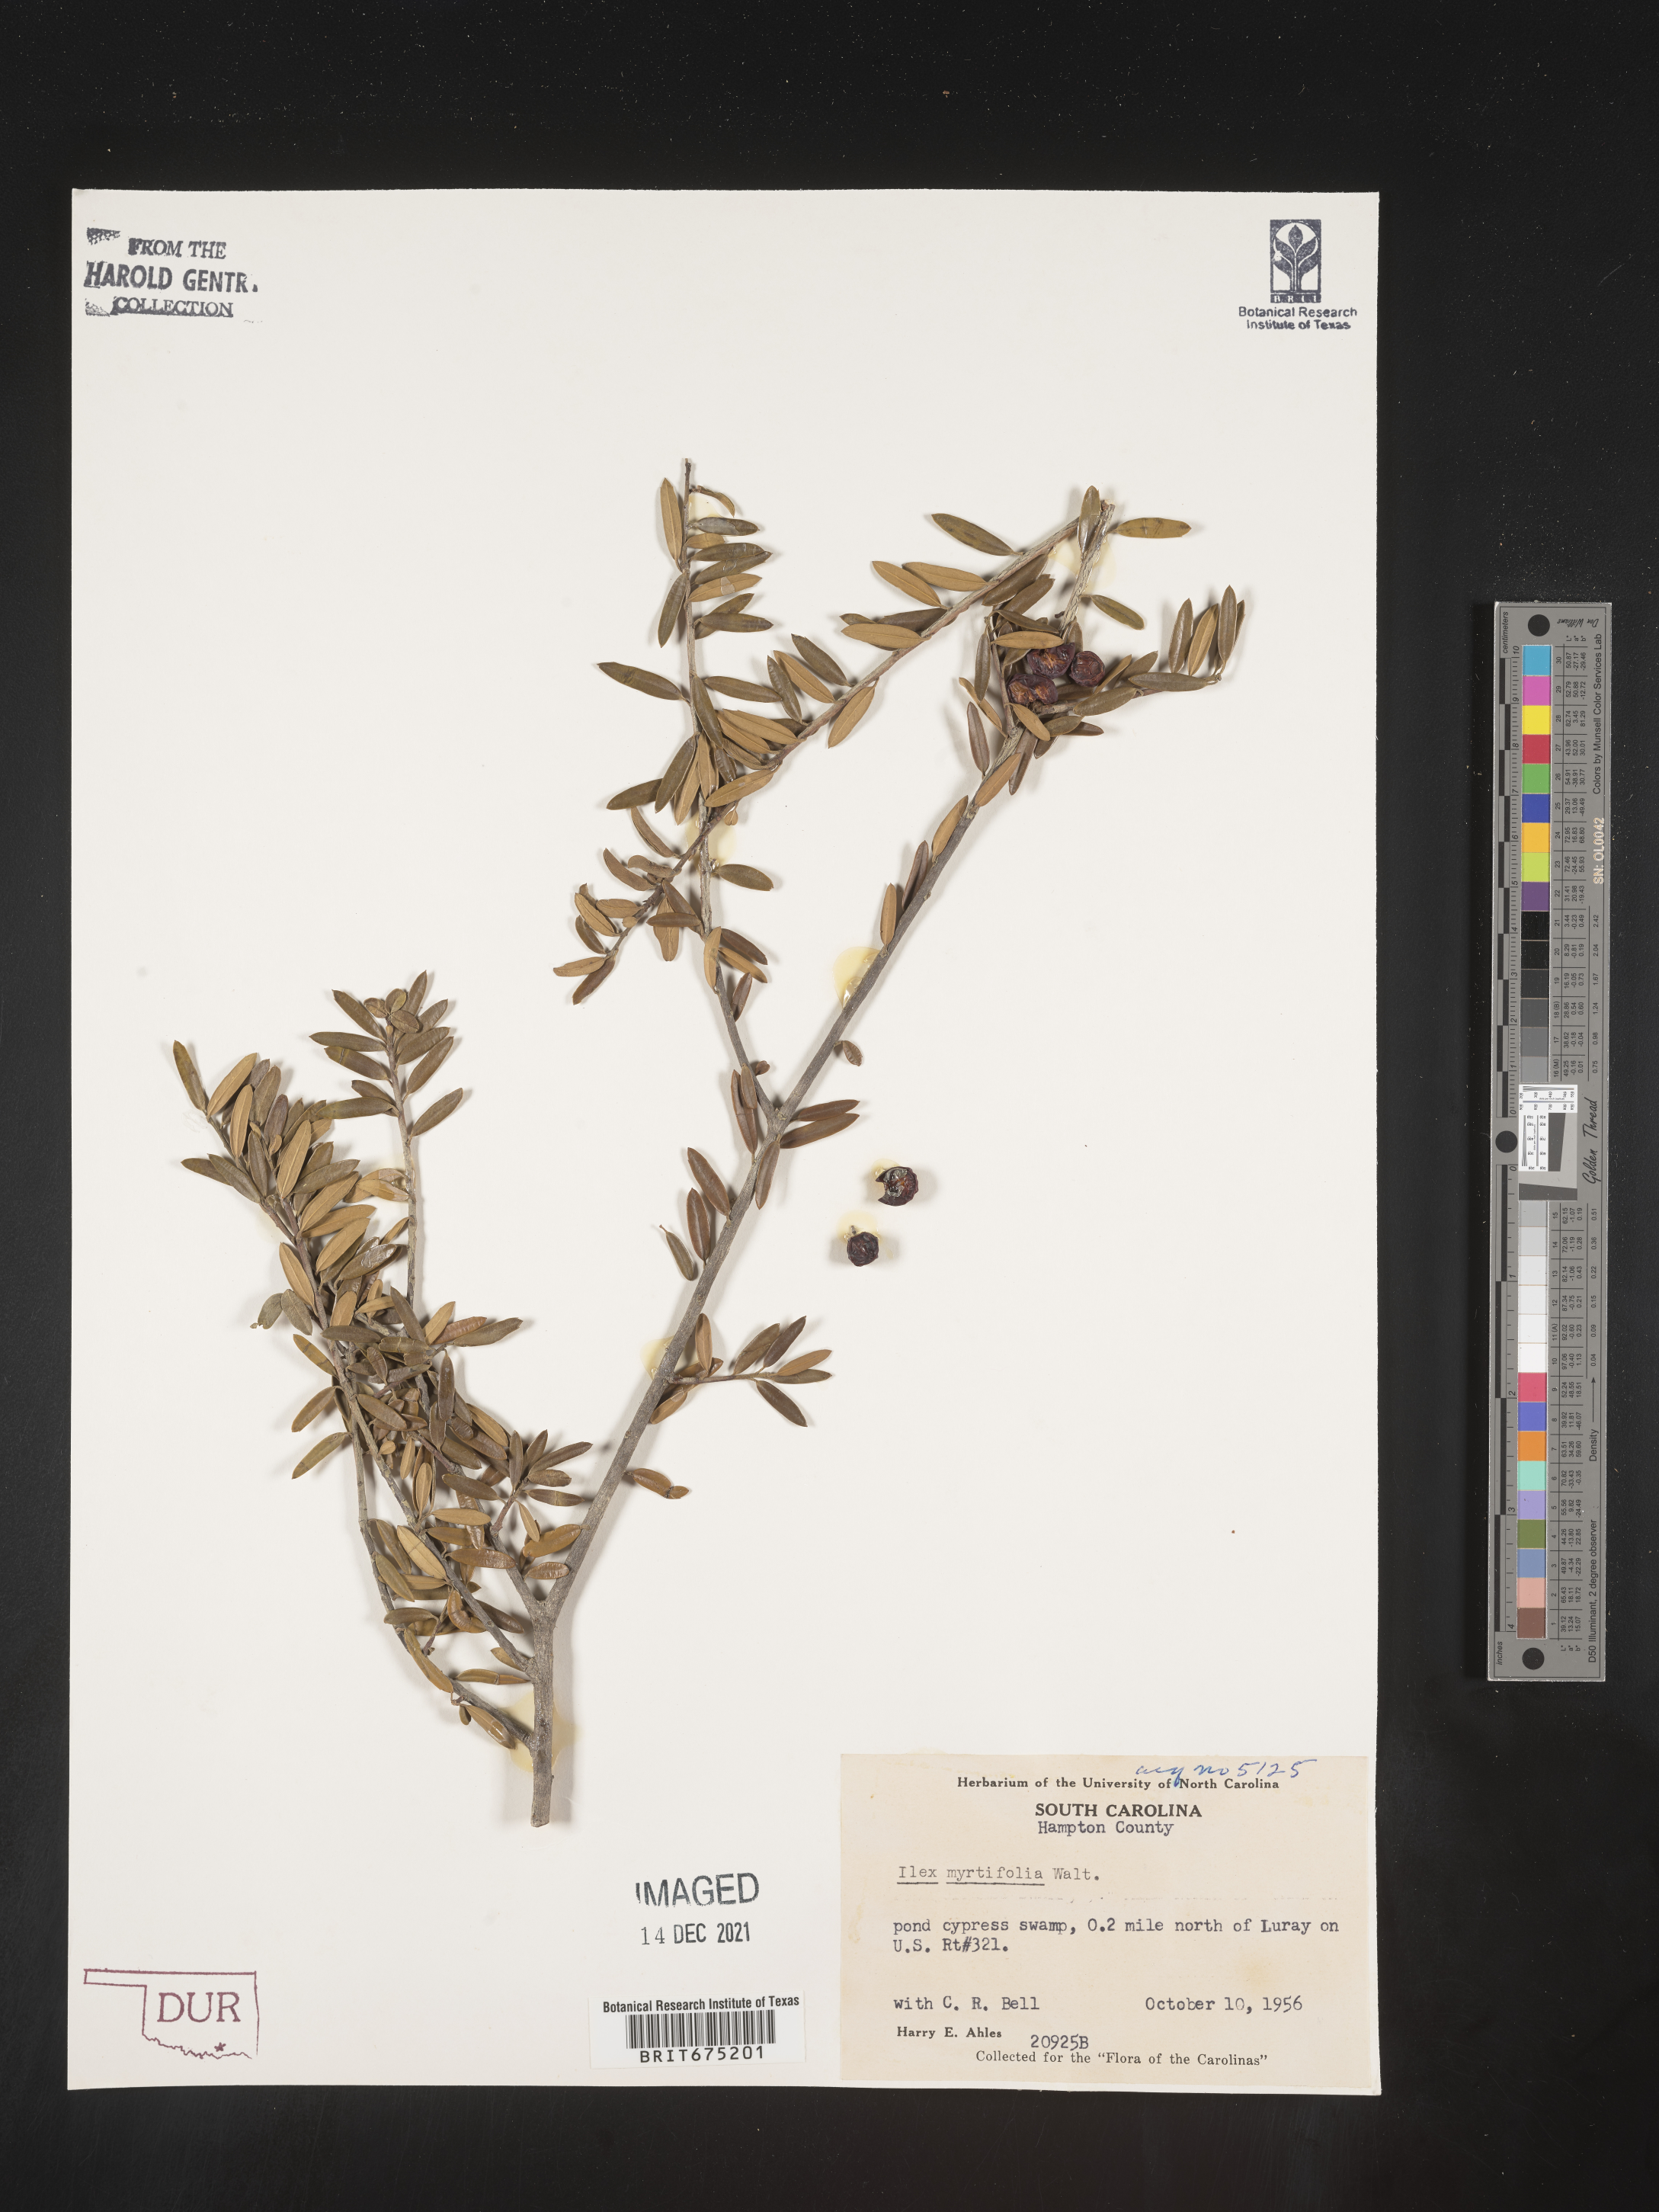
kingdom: Plantae
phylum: Tracheophyta
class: Magnoliopsida
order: Aquifoliales
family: Aquifoliaceae
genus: Ilex
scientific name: Ilex myrtifolia
